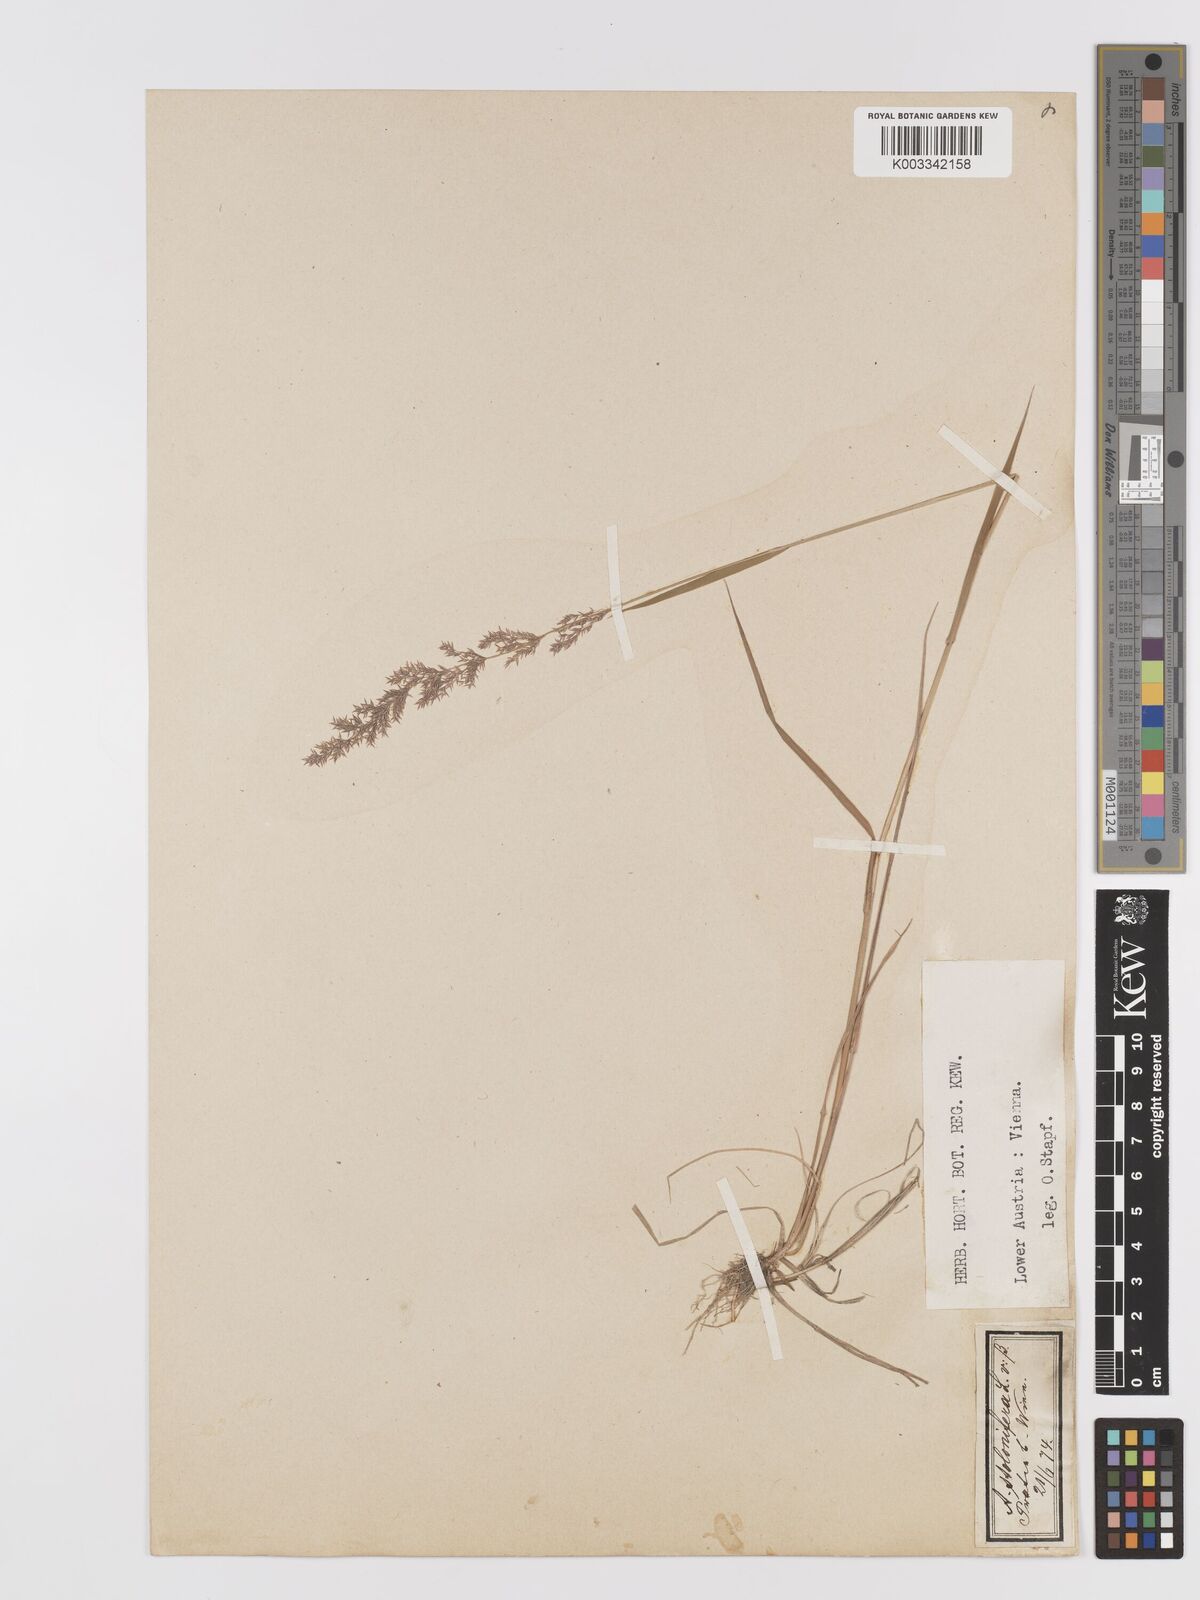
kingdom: Plantae
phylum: Tracheophyta
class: Liliopsida
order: Poales
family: Poaceae
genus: Agrostis
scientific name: Agrostis stolonifera
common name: Creeping bentgrass
